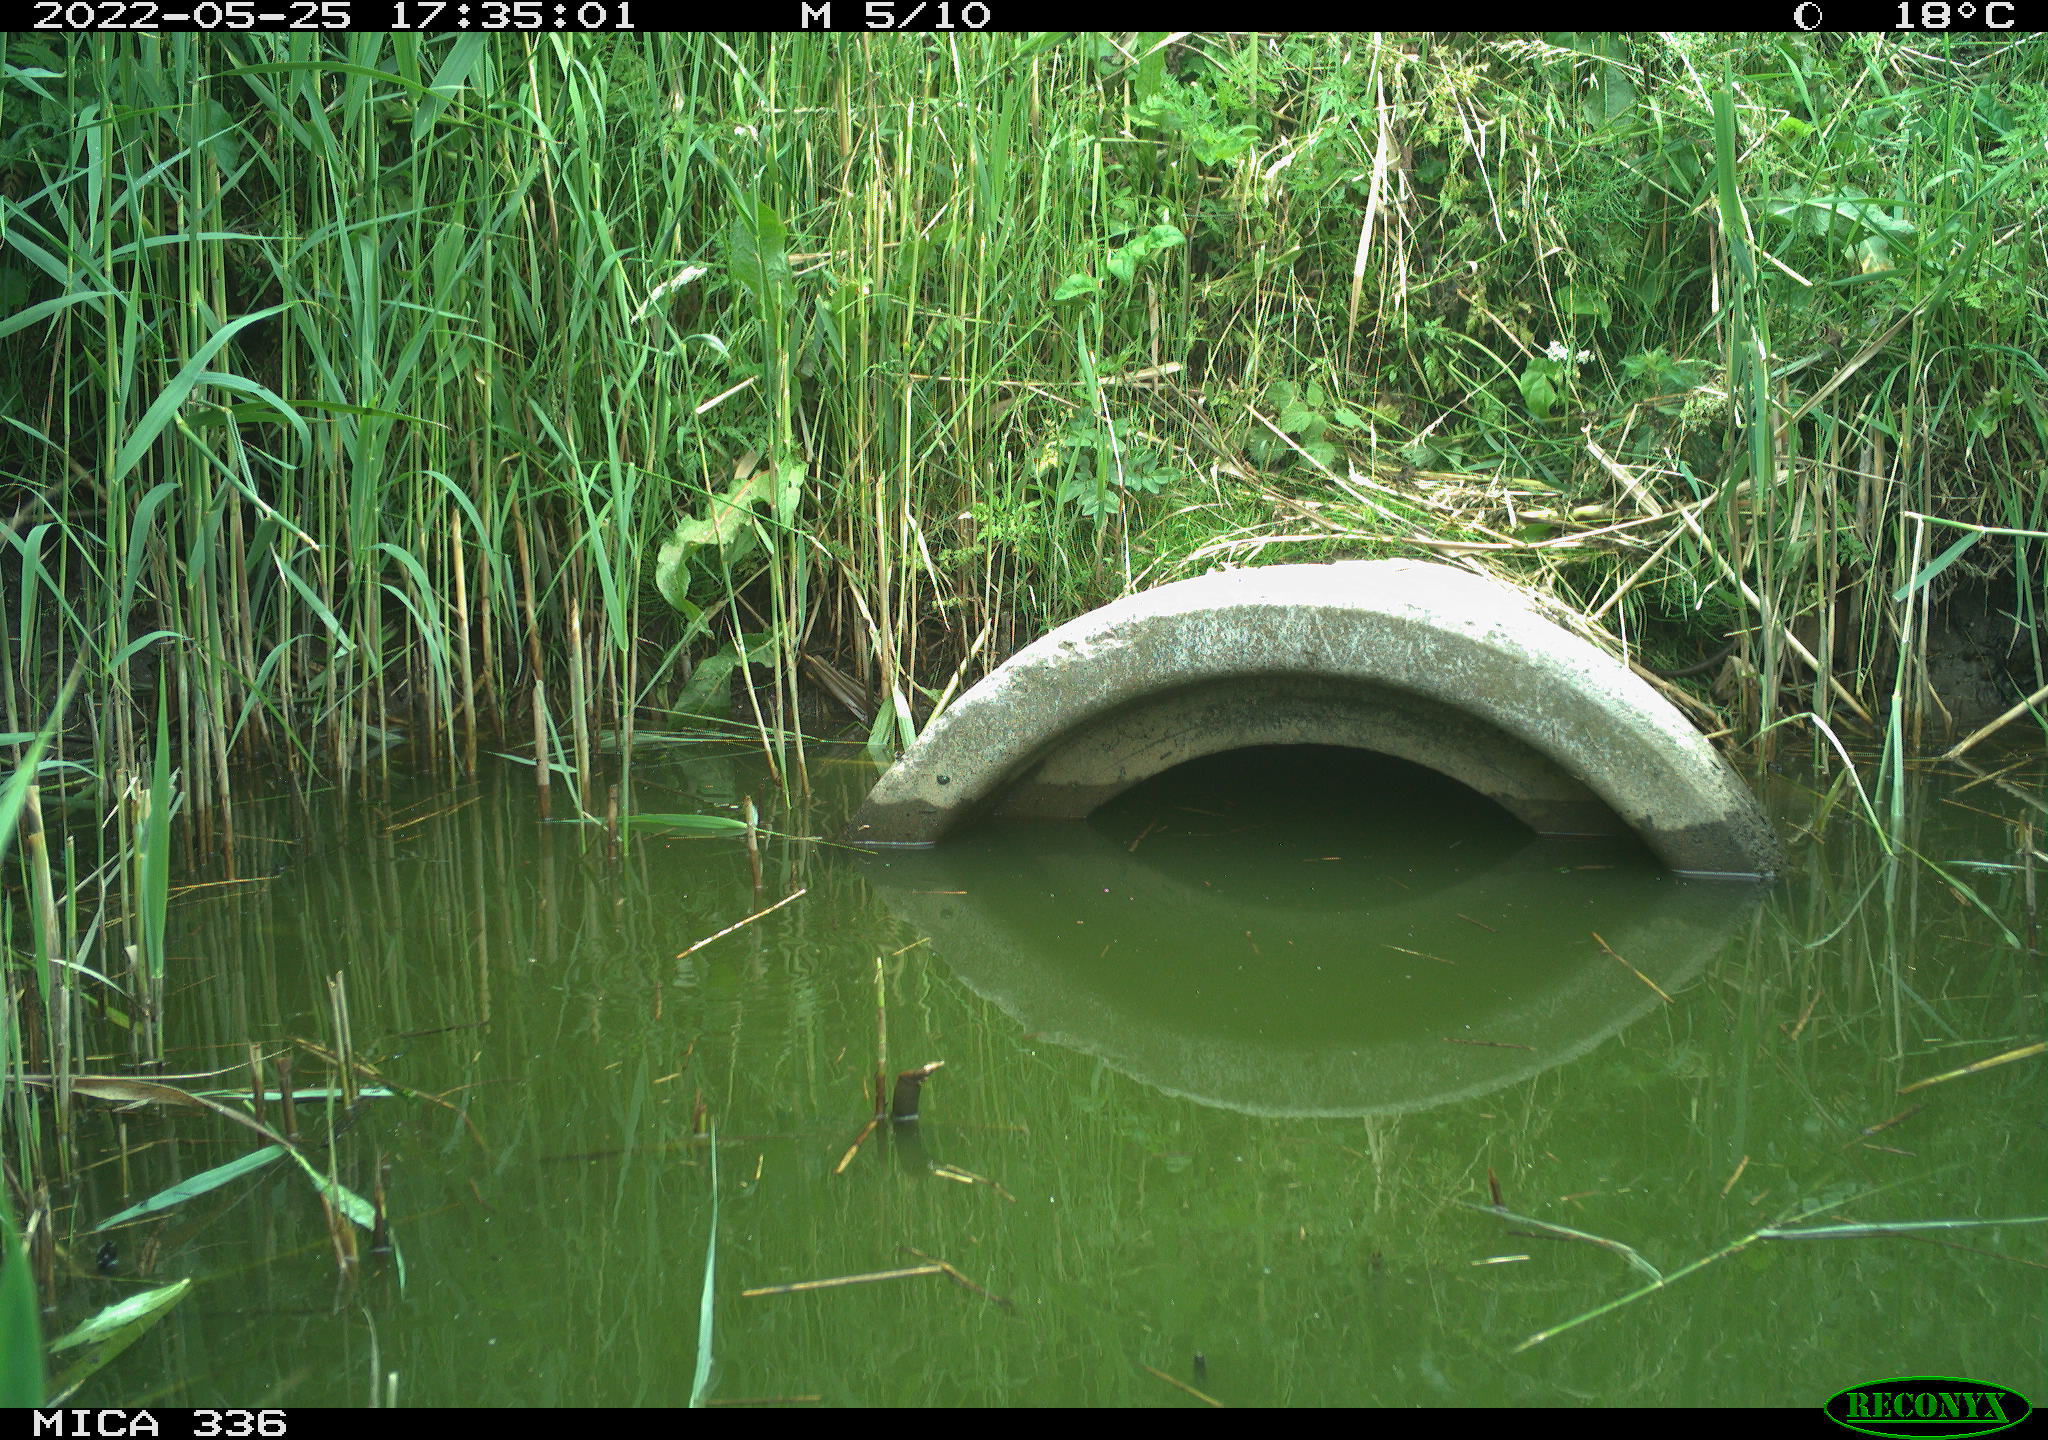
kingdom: Animalia
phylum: Chordata
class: Mammalia
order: Rodentia
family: Muridae
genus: Rattus
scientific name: Rattus norvegicus
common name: Brown rat
